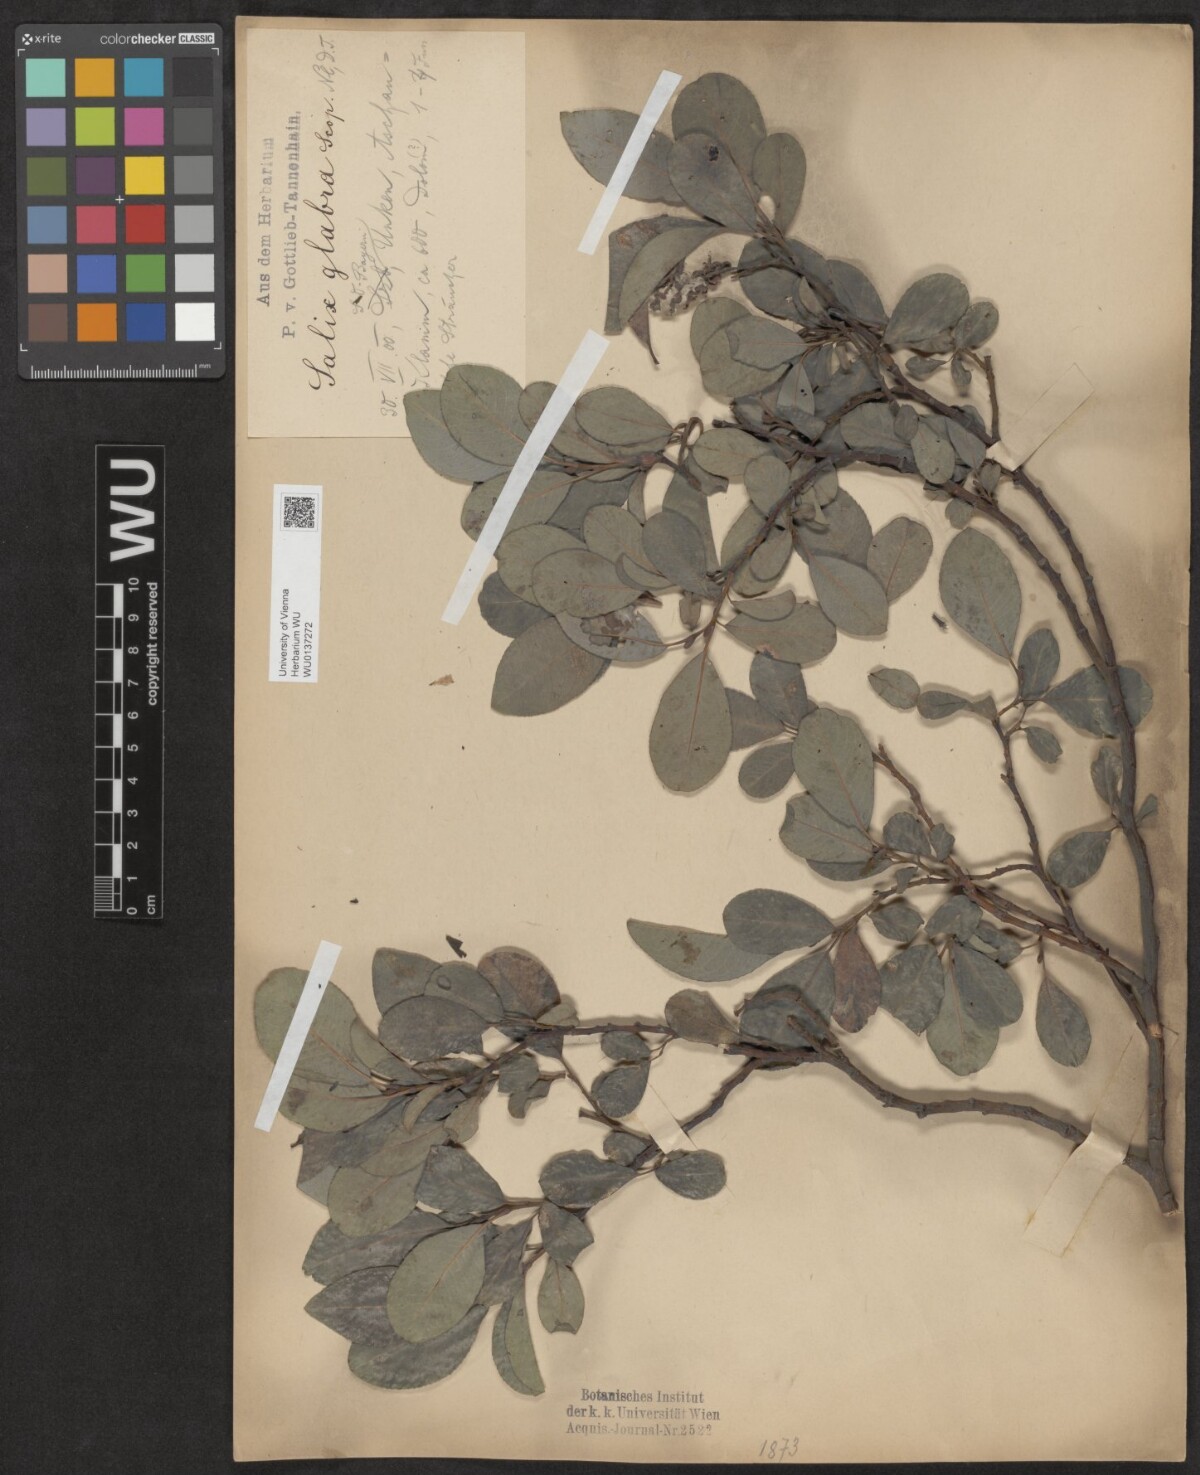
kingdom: Plantae
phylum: Tracheophyta
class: Magnoliopsida
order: Malpighiales
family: Salicaceae
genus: Salix
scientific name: Salix glabra
